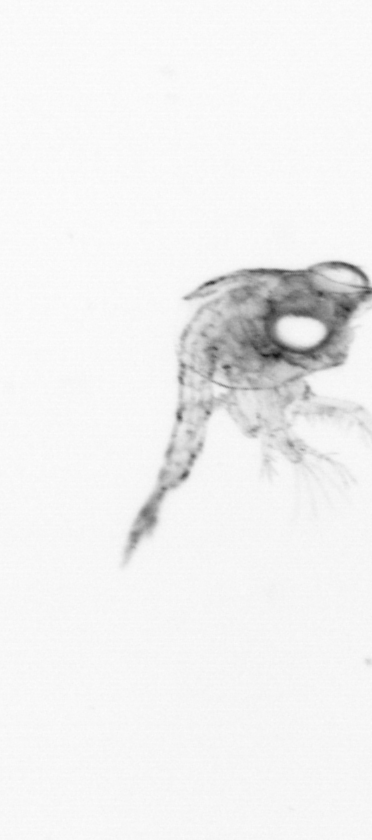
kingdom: Animalia
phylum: Arthropoda
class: Copepoda
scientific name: Copepoda
